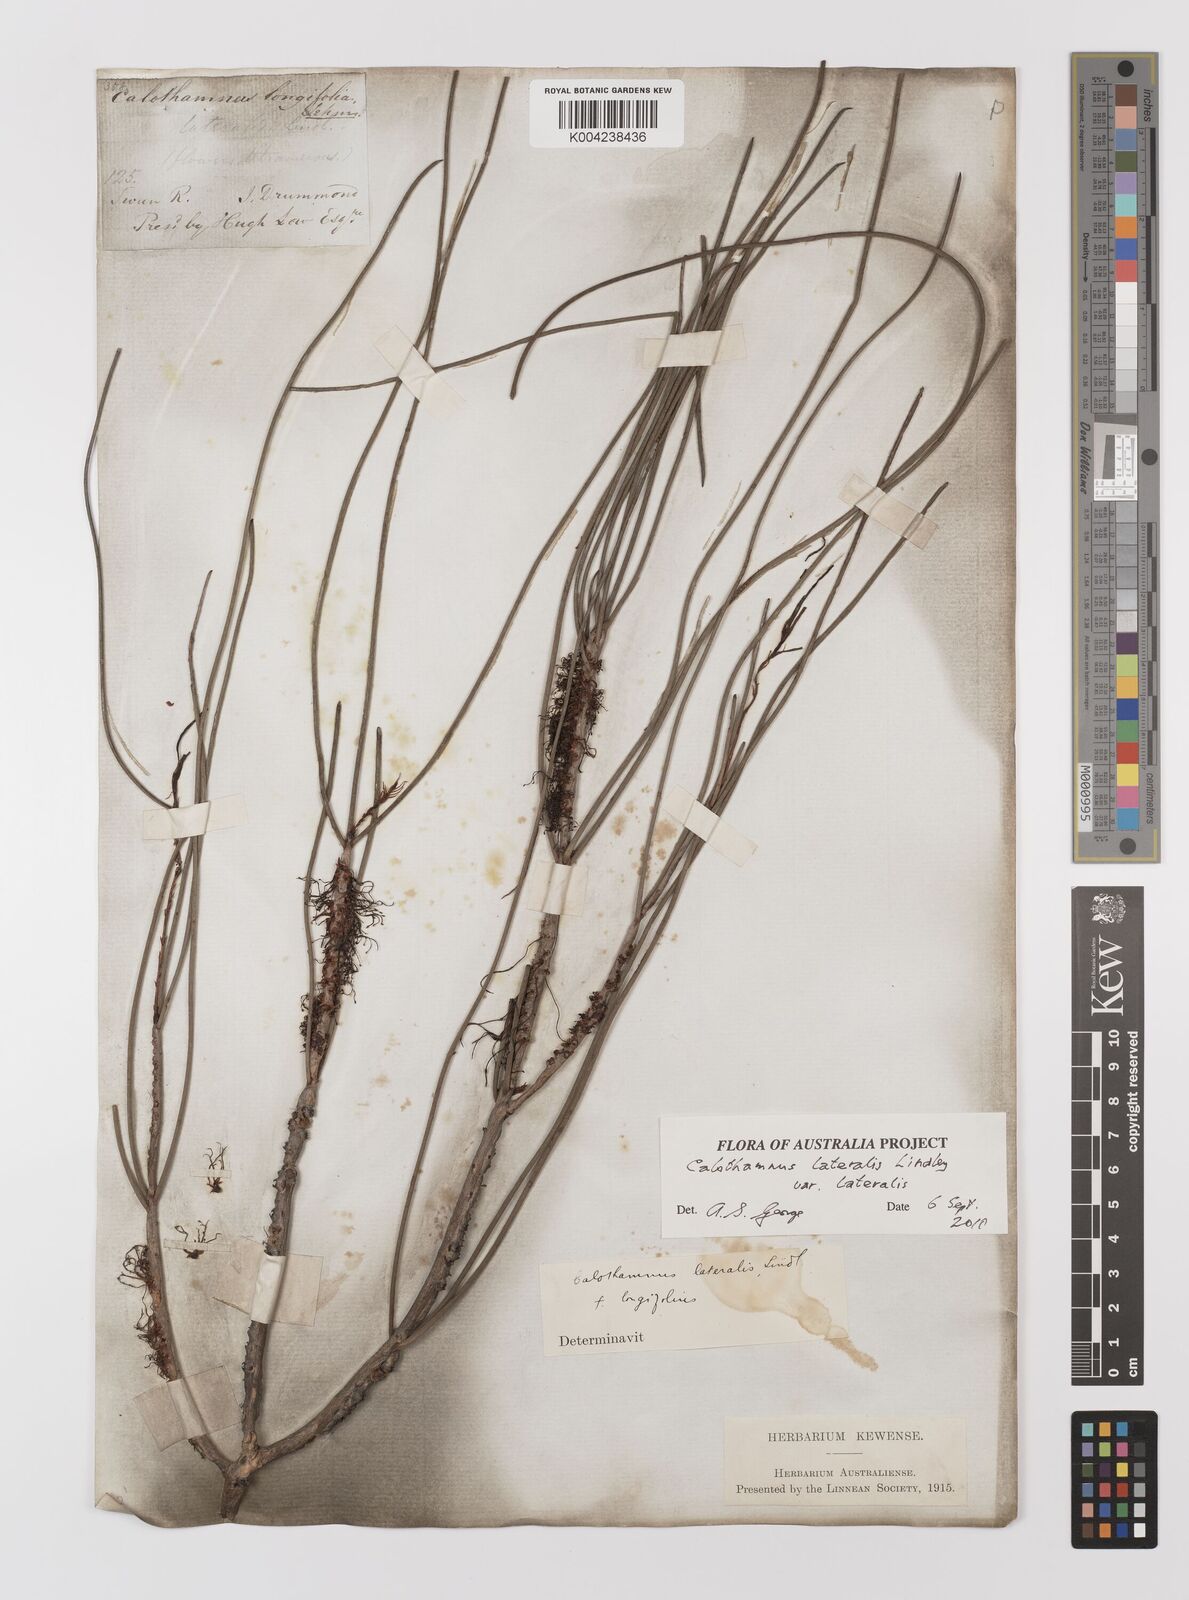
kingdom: Plantae
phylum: Tracheophyta
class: Magnoliopsida
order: Myrtales
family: Myrtaceae
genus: Melaleuca
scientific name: Melaleuca lateralis
